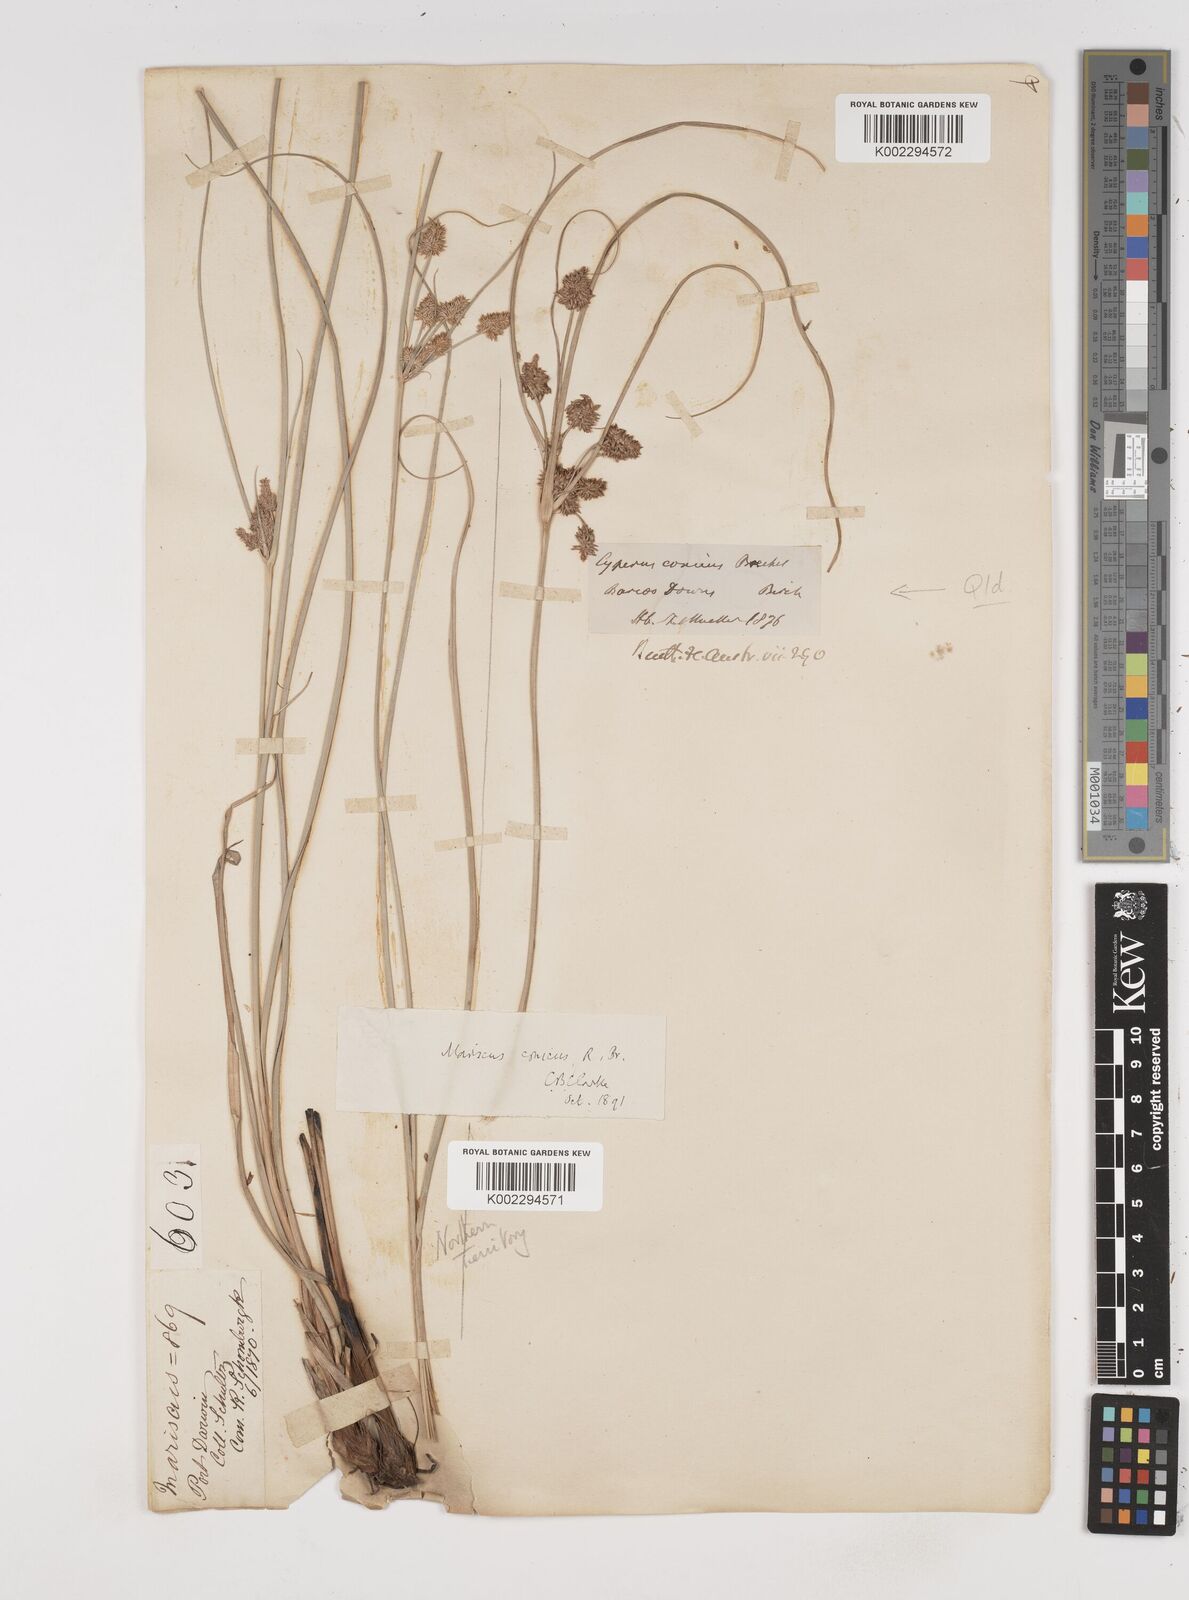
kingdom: Plantae
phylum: Tracheophyta
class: Liliopsida
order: Poales
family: Cyperaceae
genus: Cyperus
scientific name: Cyperus conicus
